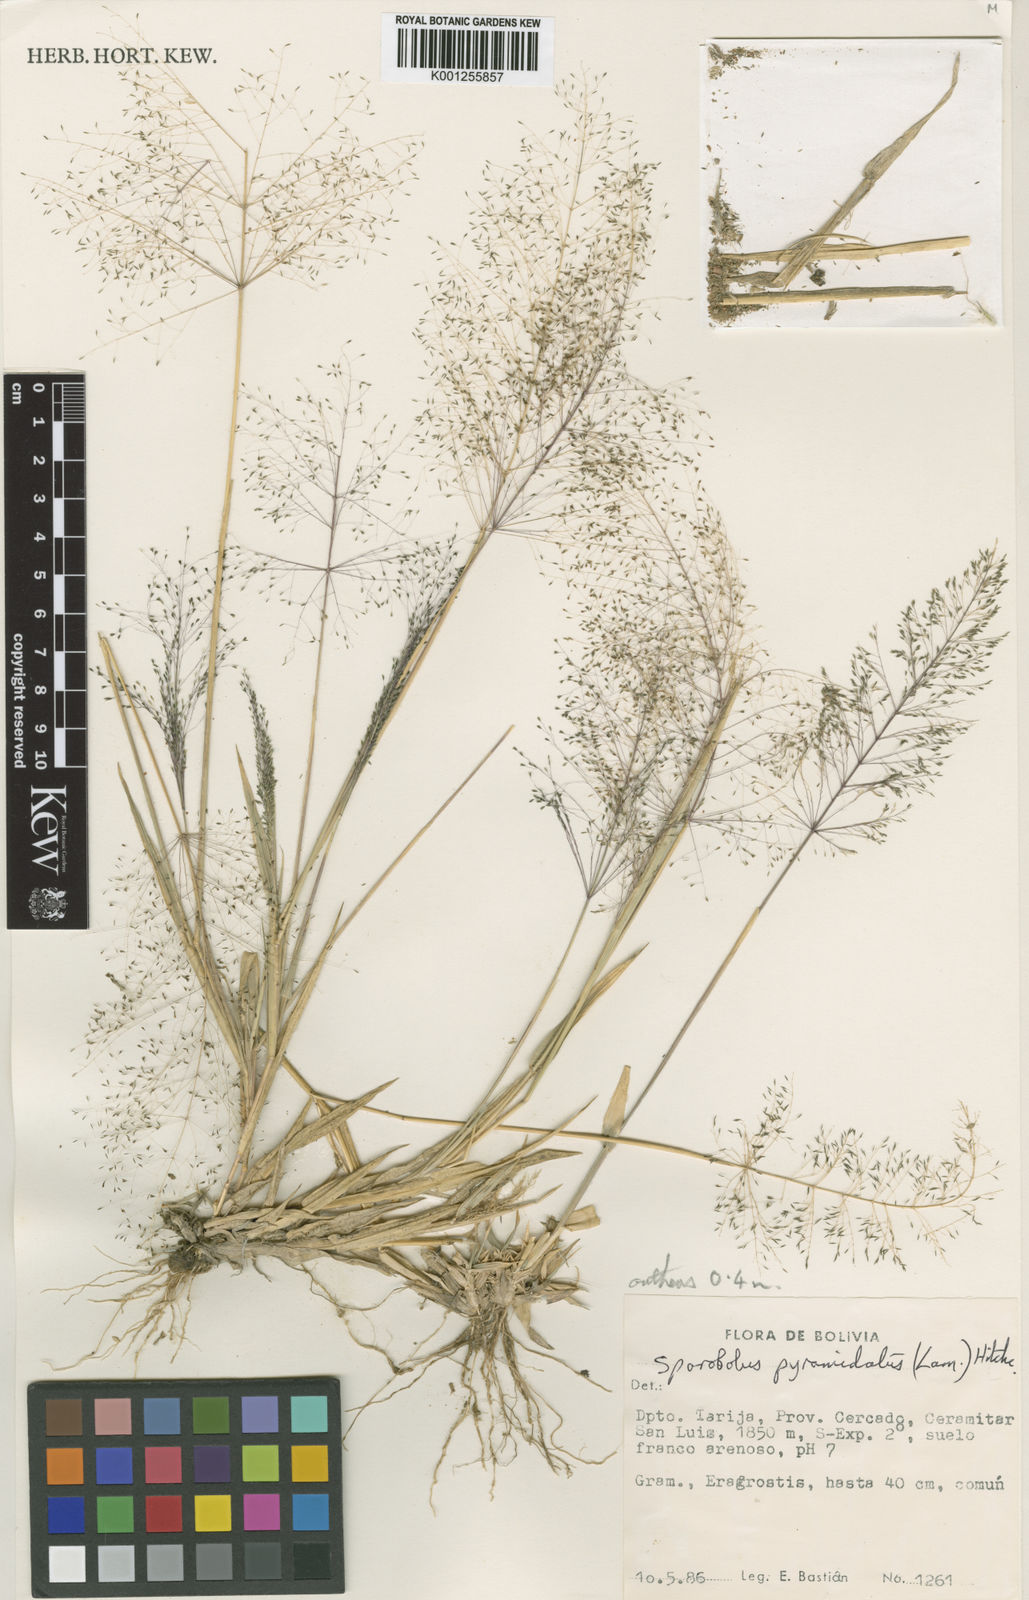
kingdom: Plantae
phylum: Tracheophyta
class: Liliopsida
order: Poales
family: Poaceae
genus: Sporobolus
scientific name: Sporobolus pyramidatus
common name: Whorled dropseed
